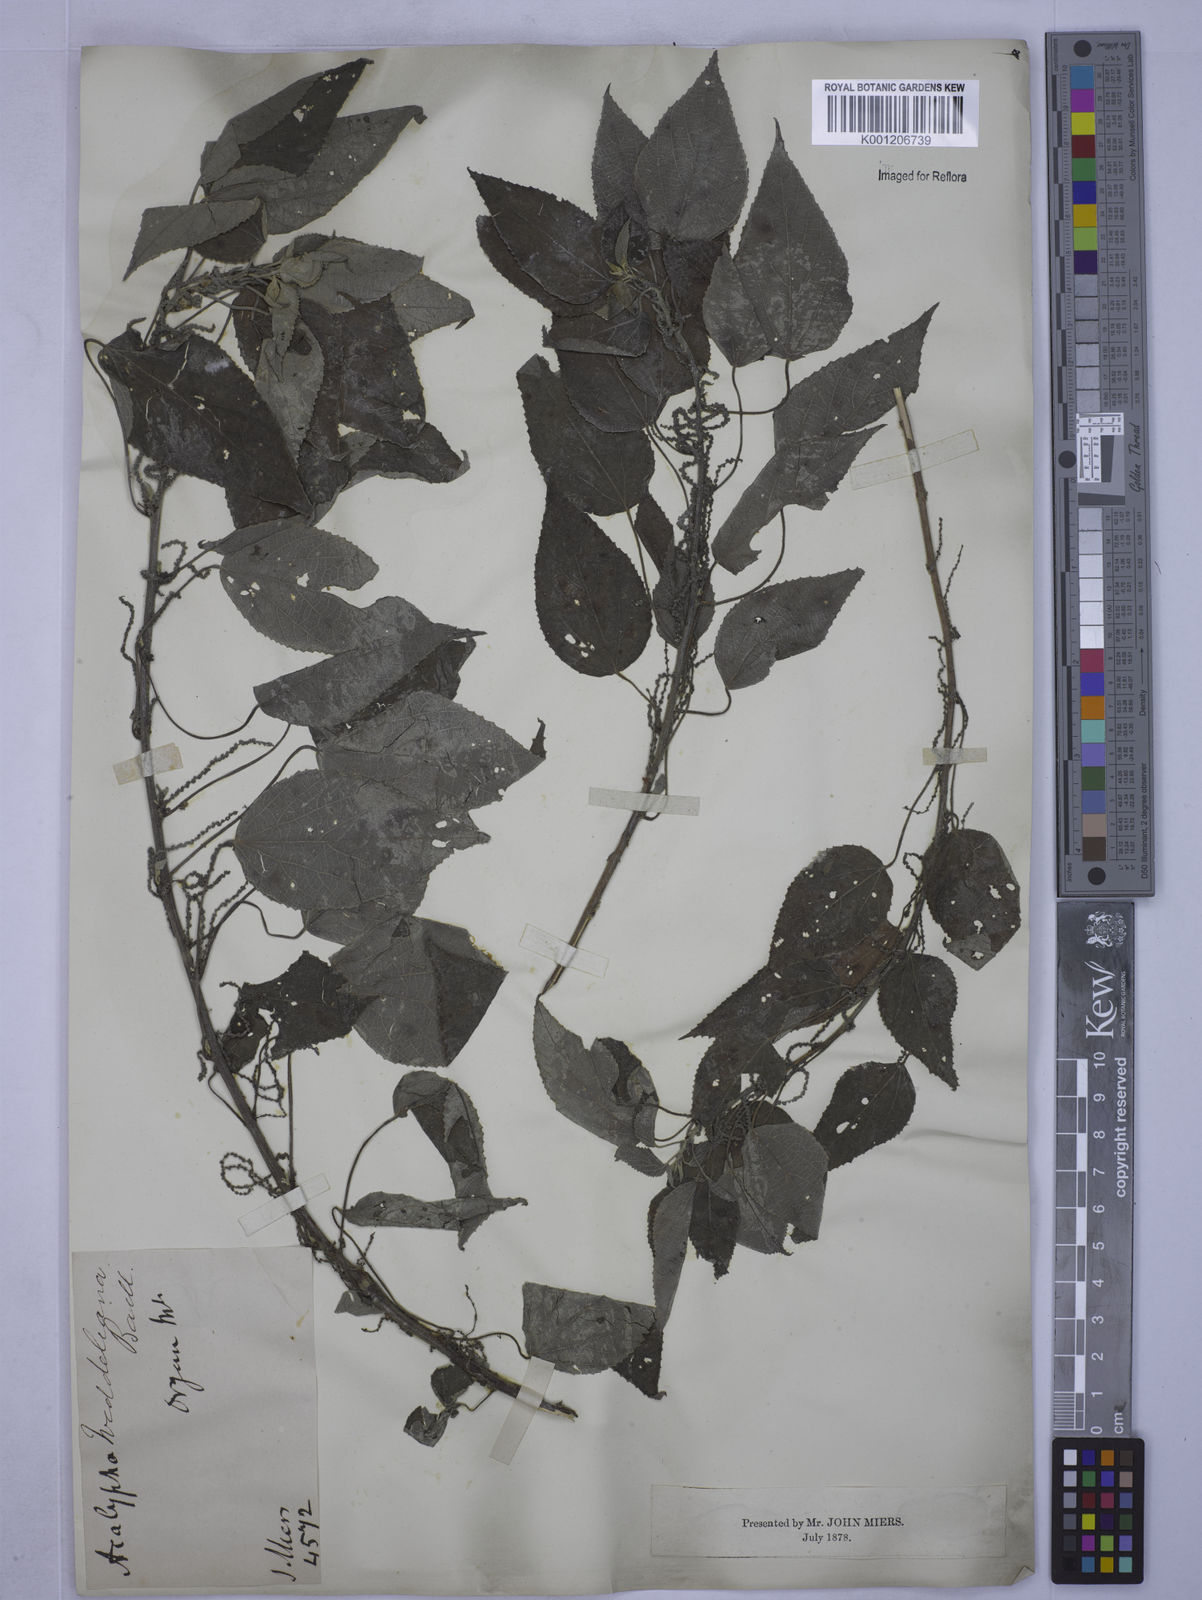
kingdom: Plantae
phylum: Tracheophyta
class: Magnoliopsida
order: Malpighiales
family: Euphorbiaceae
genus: Acalypha
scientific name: Acalypha weddelliana
